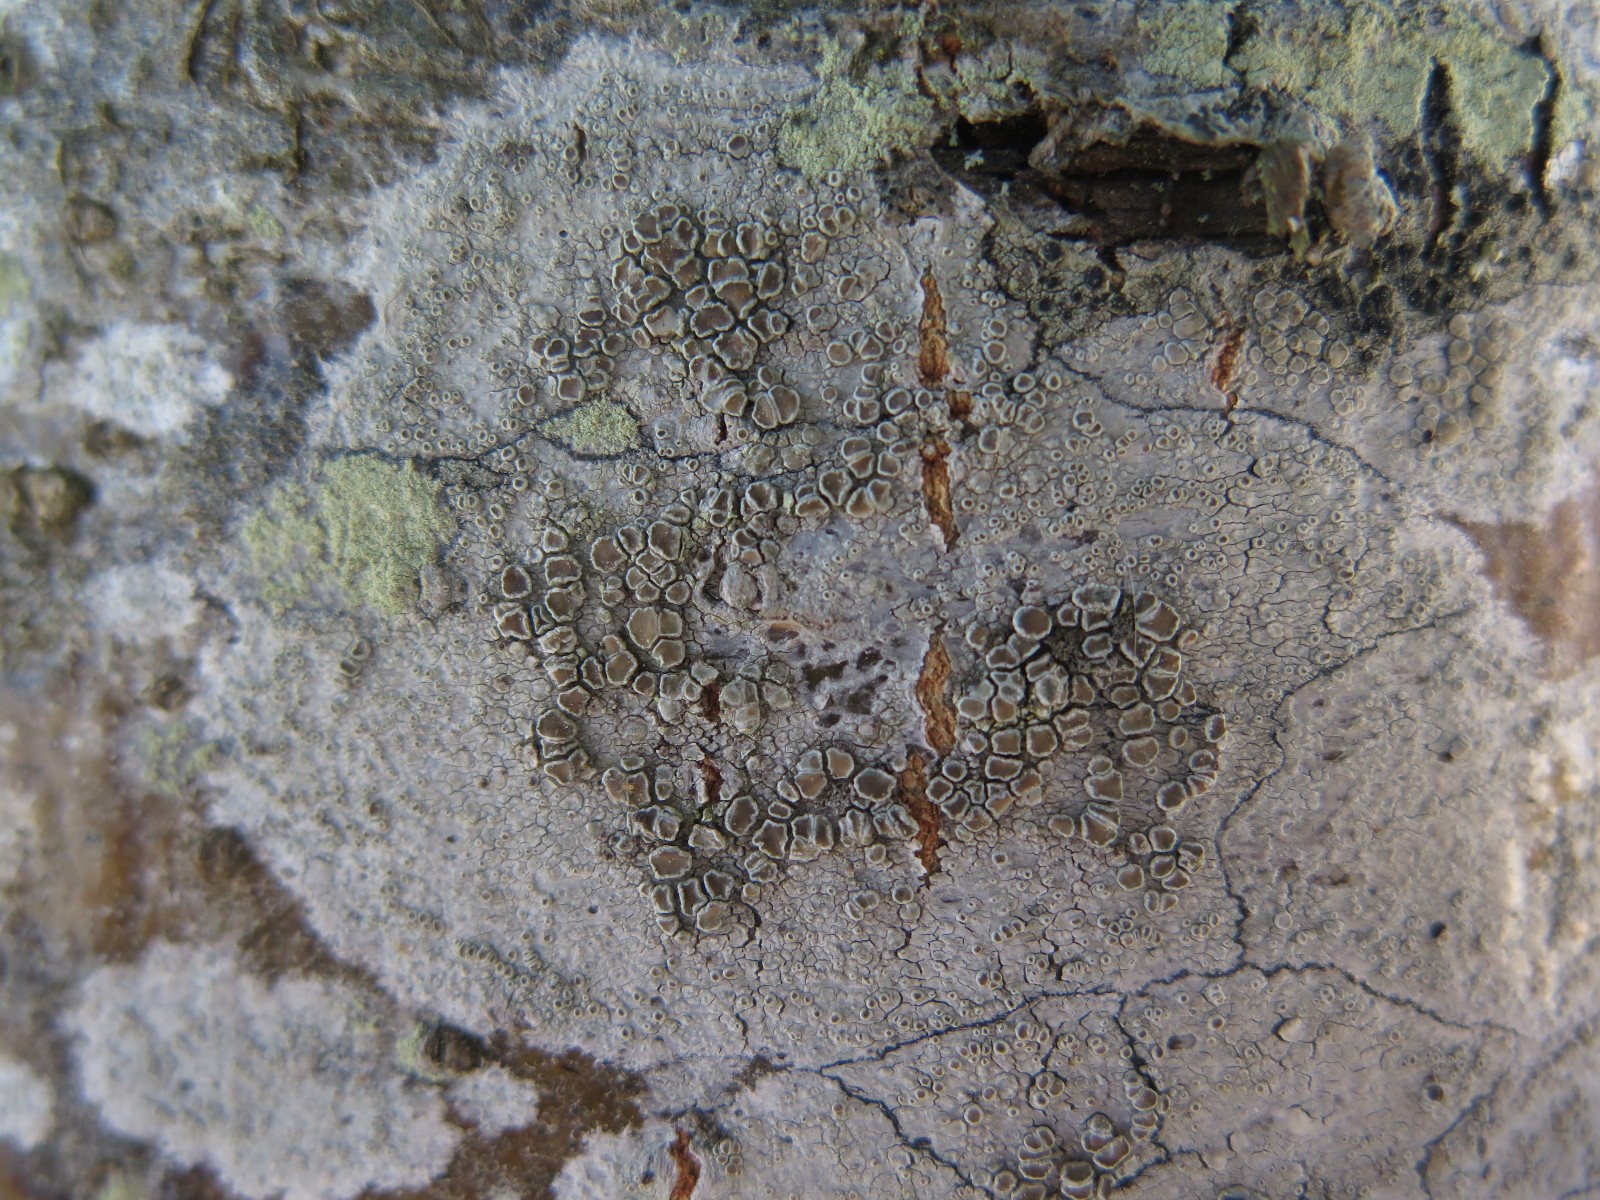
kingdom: Fungi
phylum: Ascomycota
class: Lecanoromycetes
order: Lecanorales
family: Lecanoraceae
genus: Lecanora
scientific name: Lecanora chlarotera
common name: brun kantskivelav
